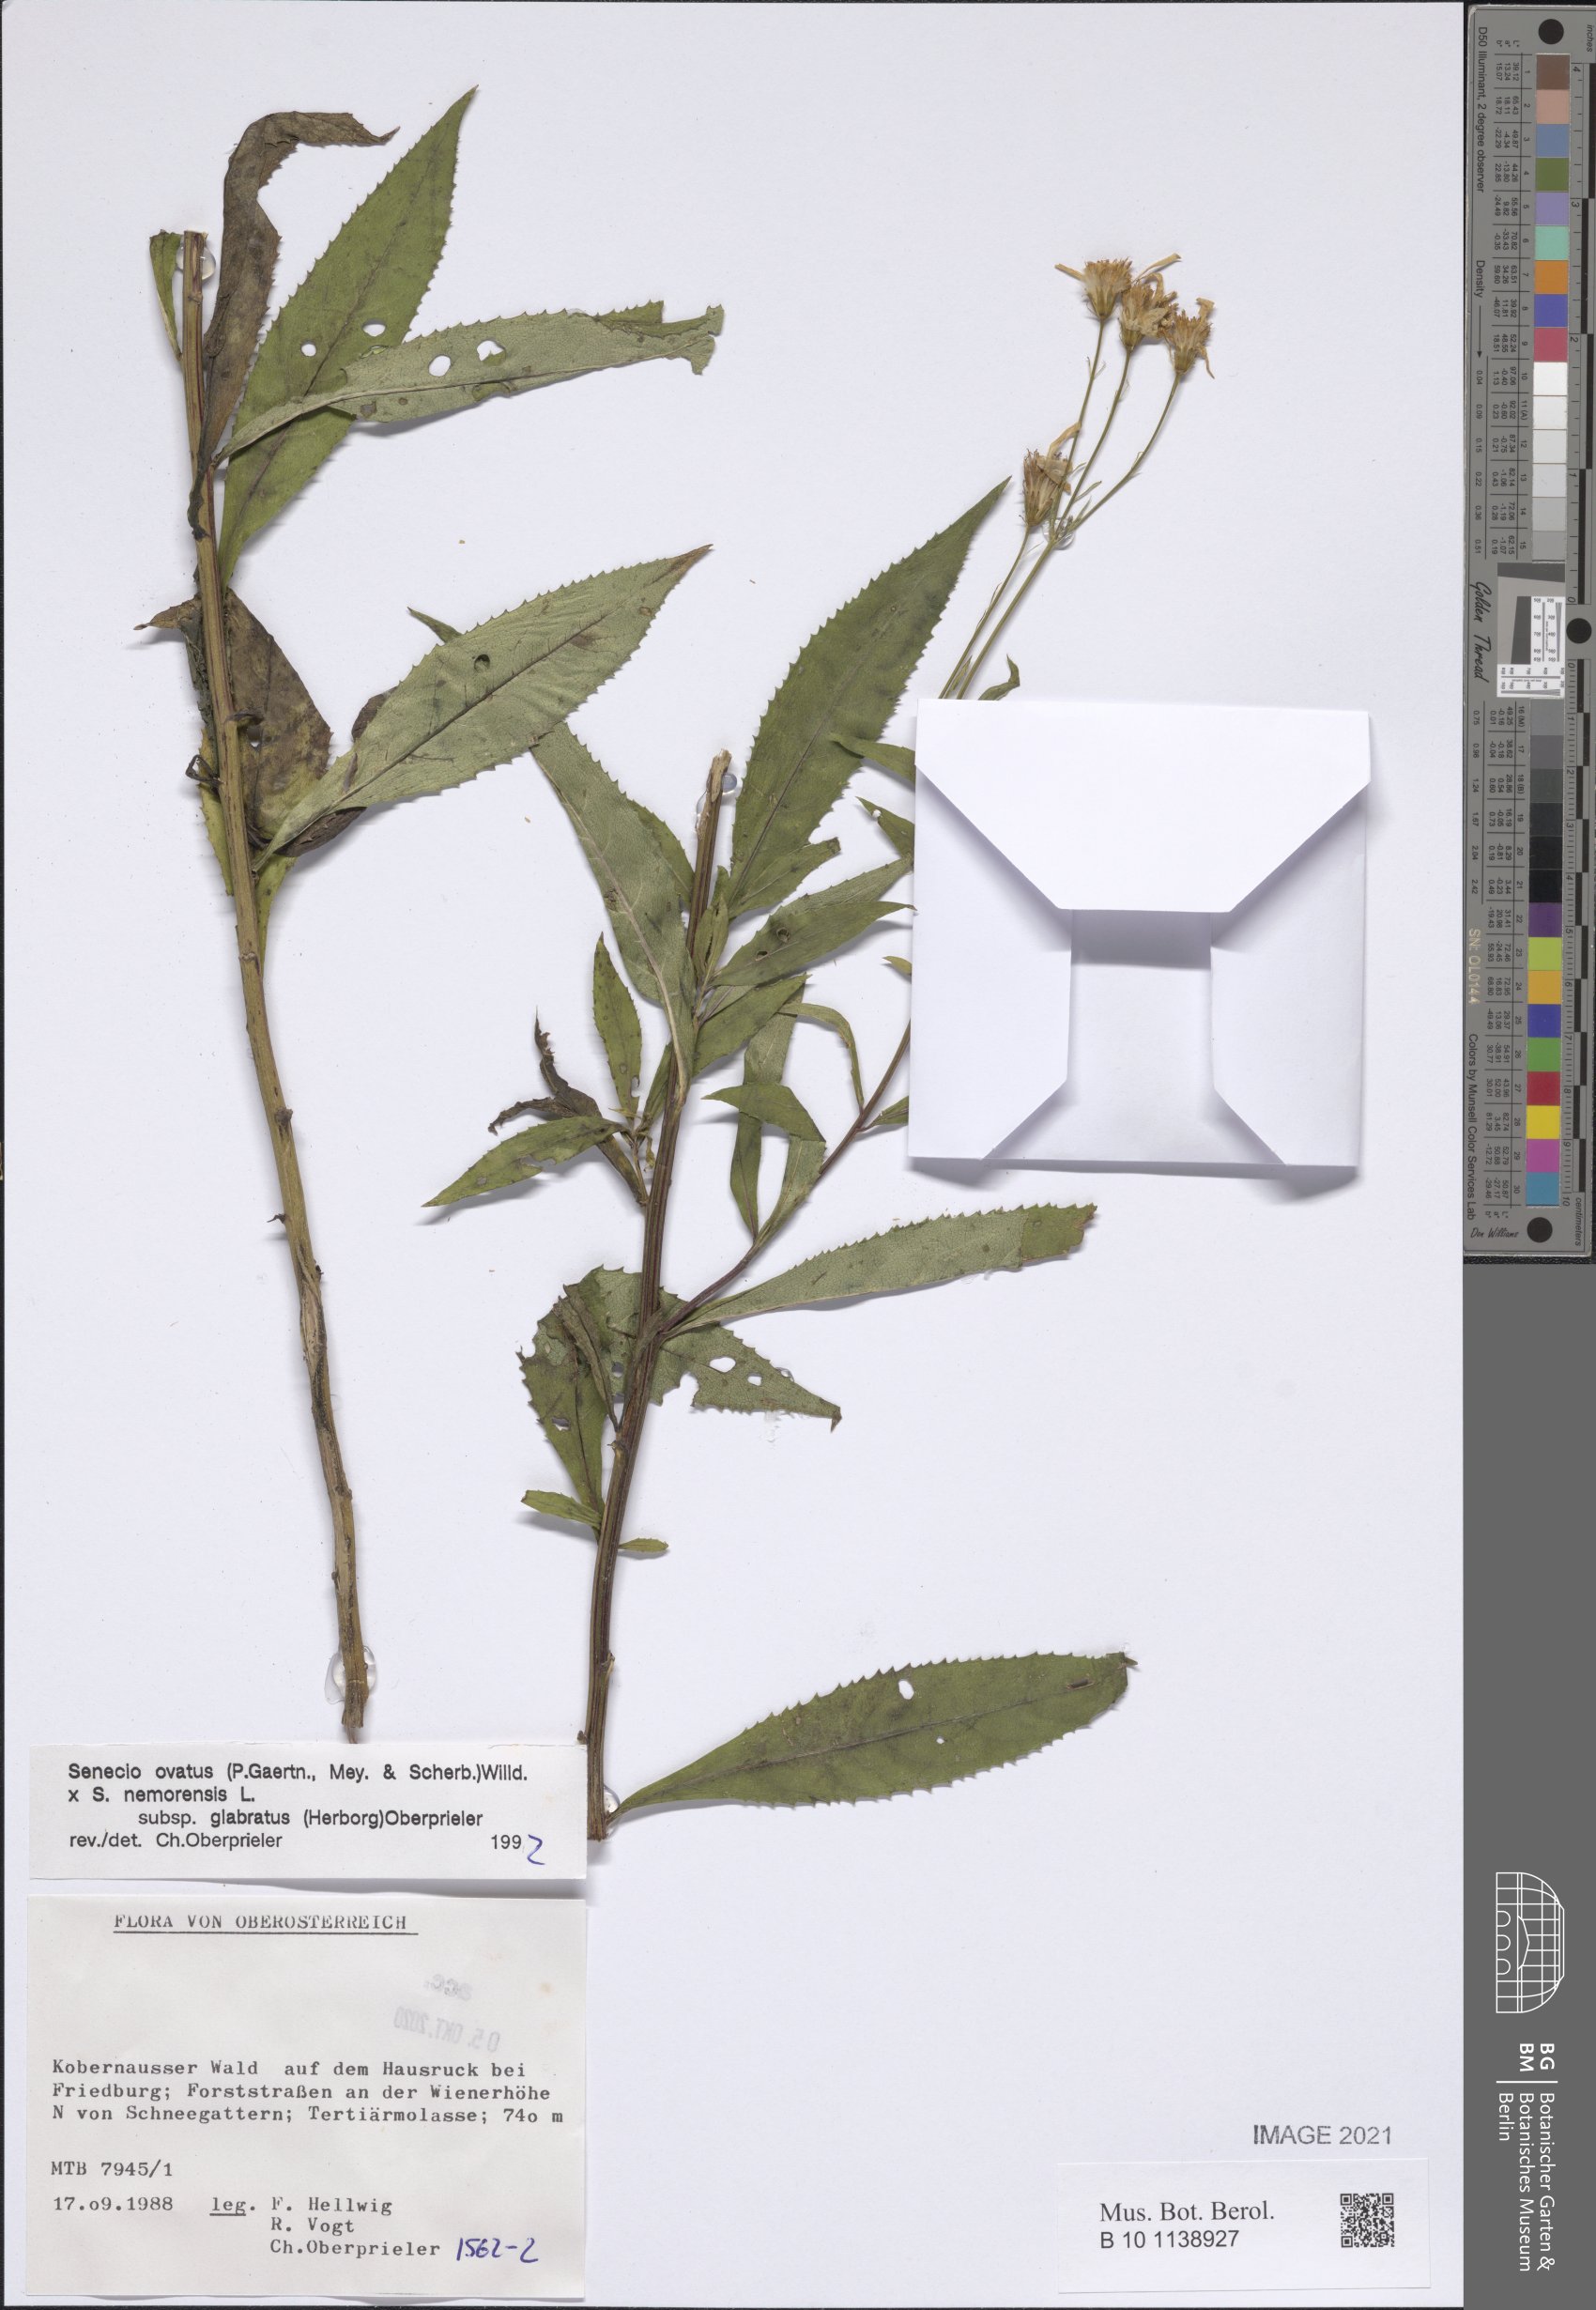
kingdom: Plantae
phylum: Tracheophyta
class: Magnoliopsida
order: Asterales
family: Asteraceae
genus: Senecio
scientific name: Senecio ovatus
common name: Wood ragwort
